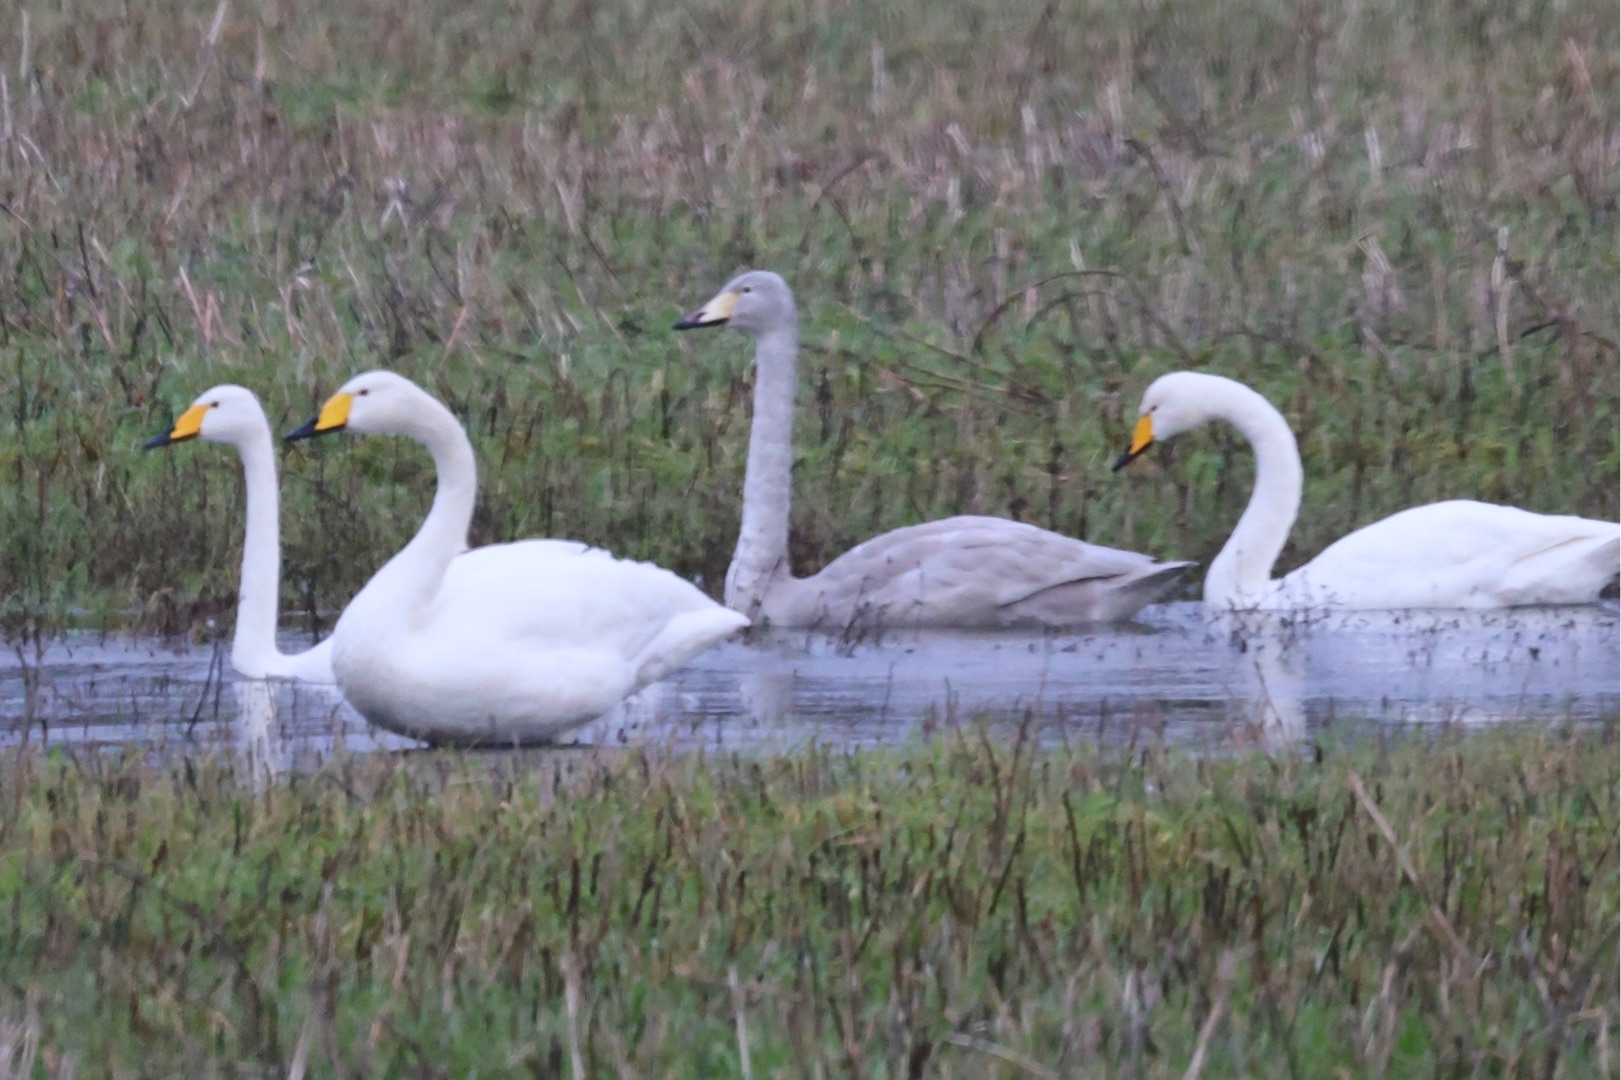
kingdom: Animalia
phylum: Chordata
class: Aves
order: Anseriformes
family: Anatidae
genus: Cygnus
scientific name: Cygnus cygnus
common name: Sangsvane
